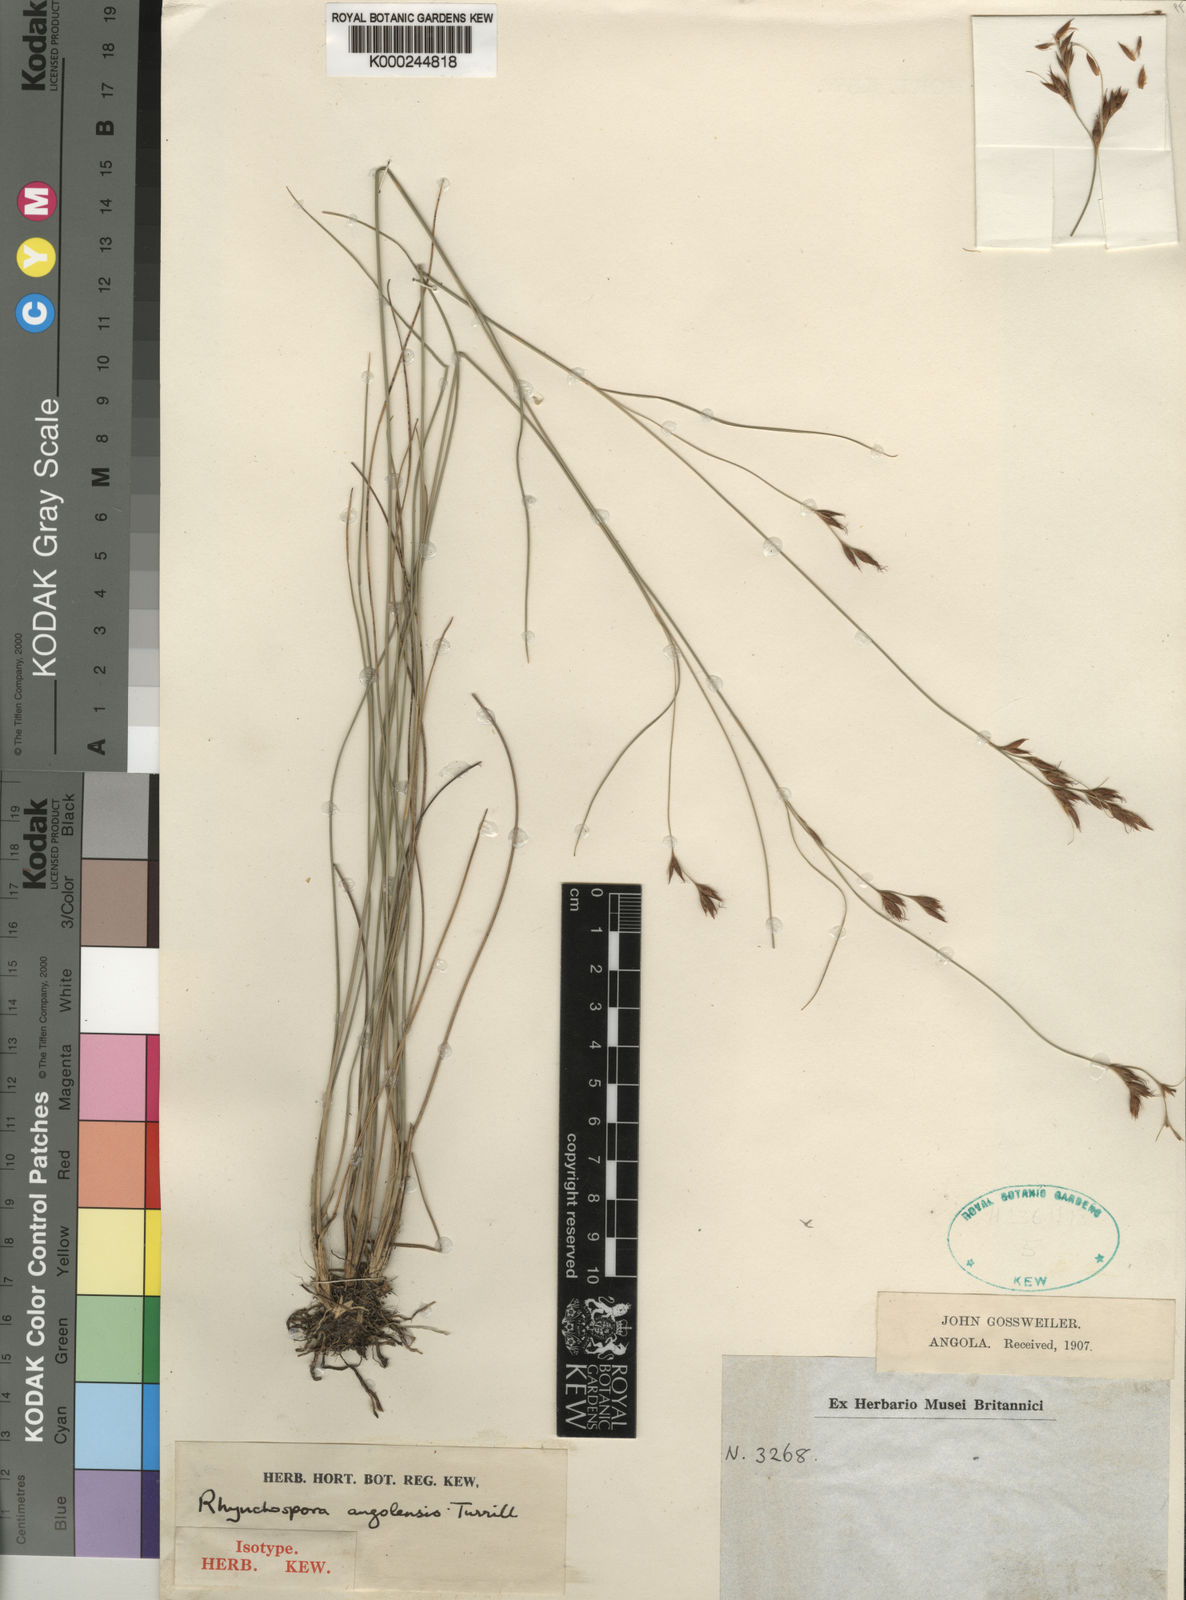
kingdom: Plantae
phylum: Tracheophyta
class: Liliopsida
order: Poales
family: Cyperaceae
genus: Rhynchospora
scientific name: Rhynchospora angolensis
